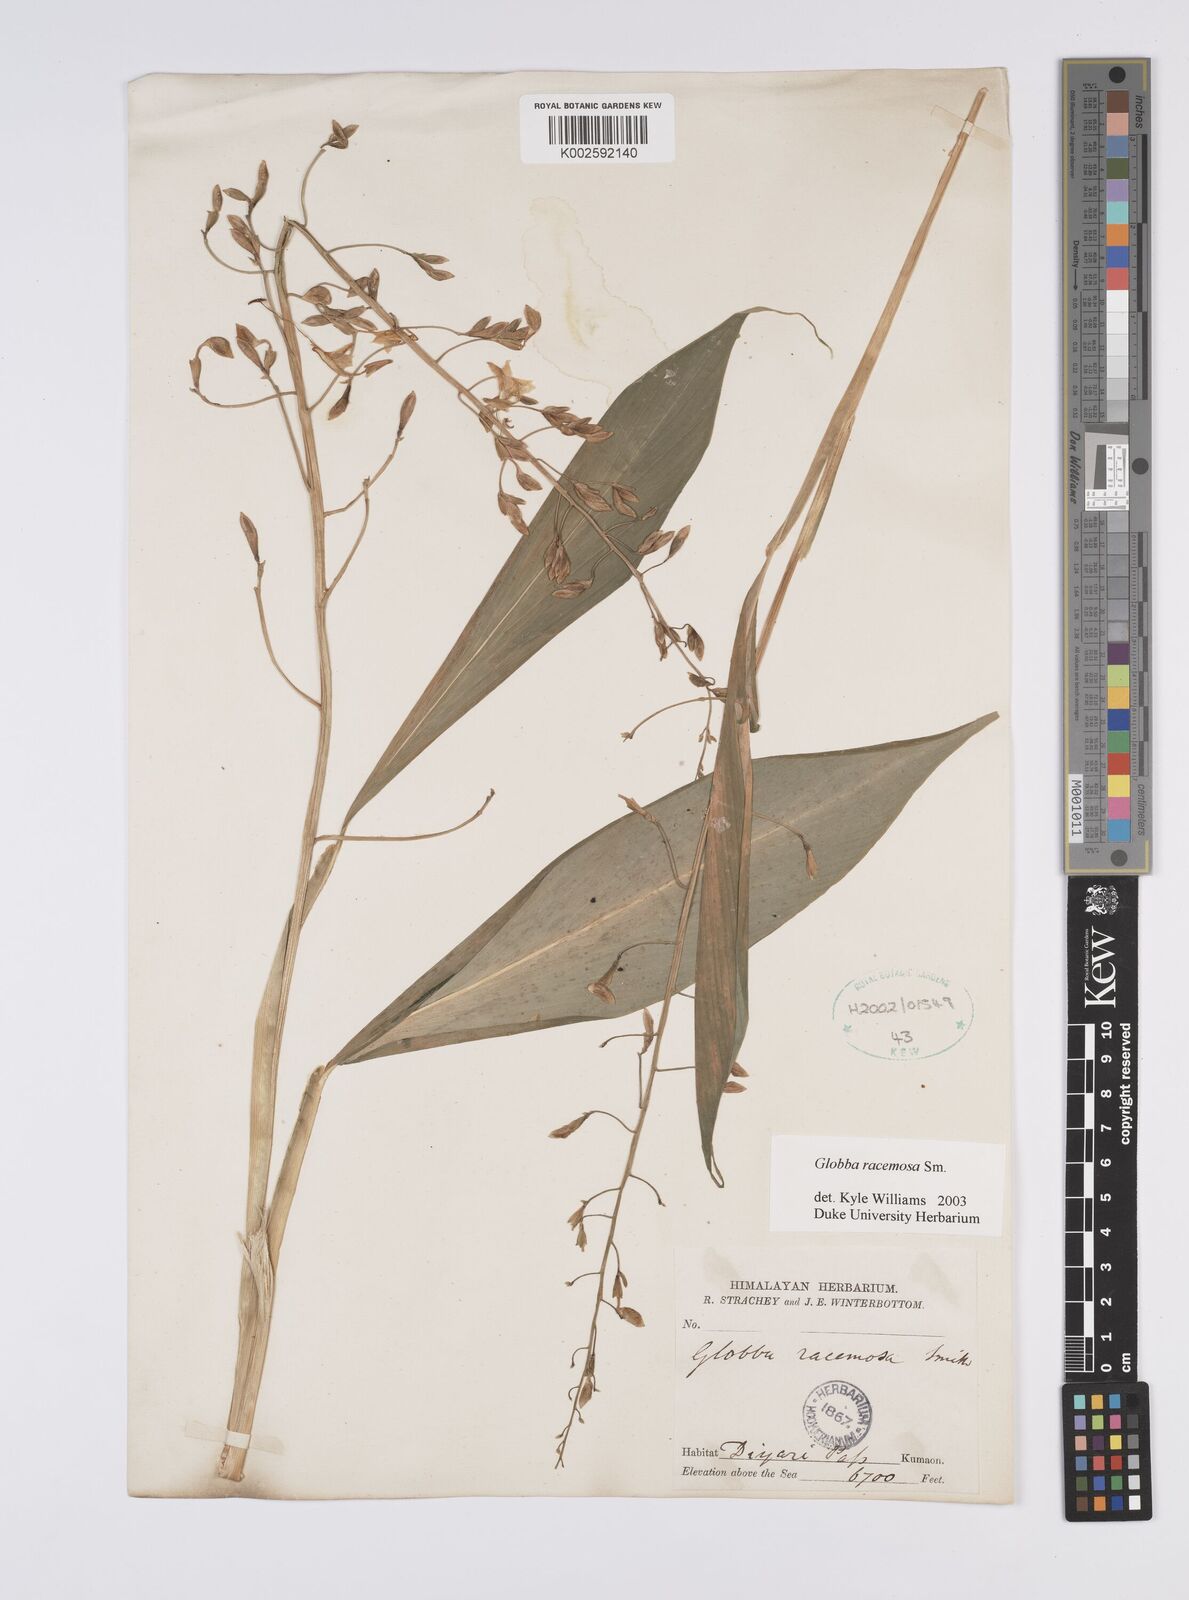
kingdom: Plantae
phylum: Tracheophyta
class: Liliopsida
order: Zingiberales
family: Zingiberaceae
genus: Globba
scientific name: Globba racemosa
